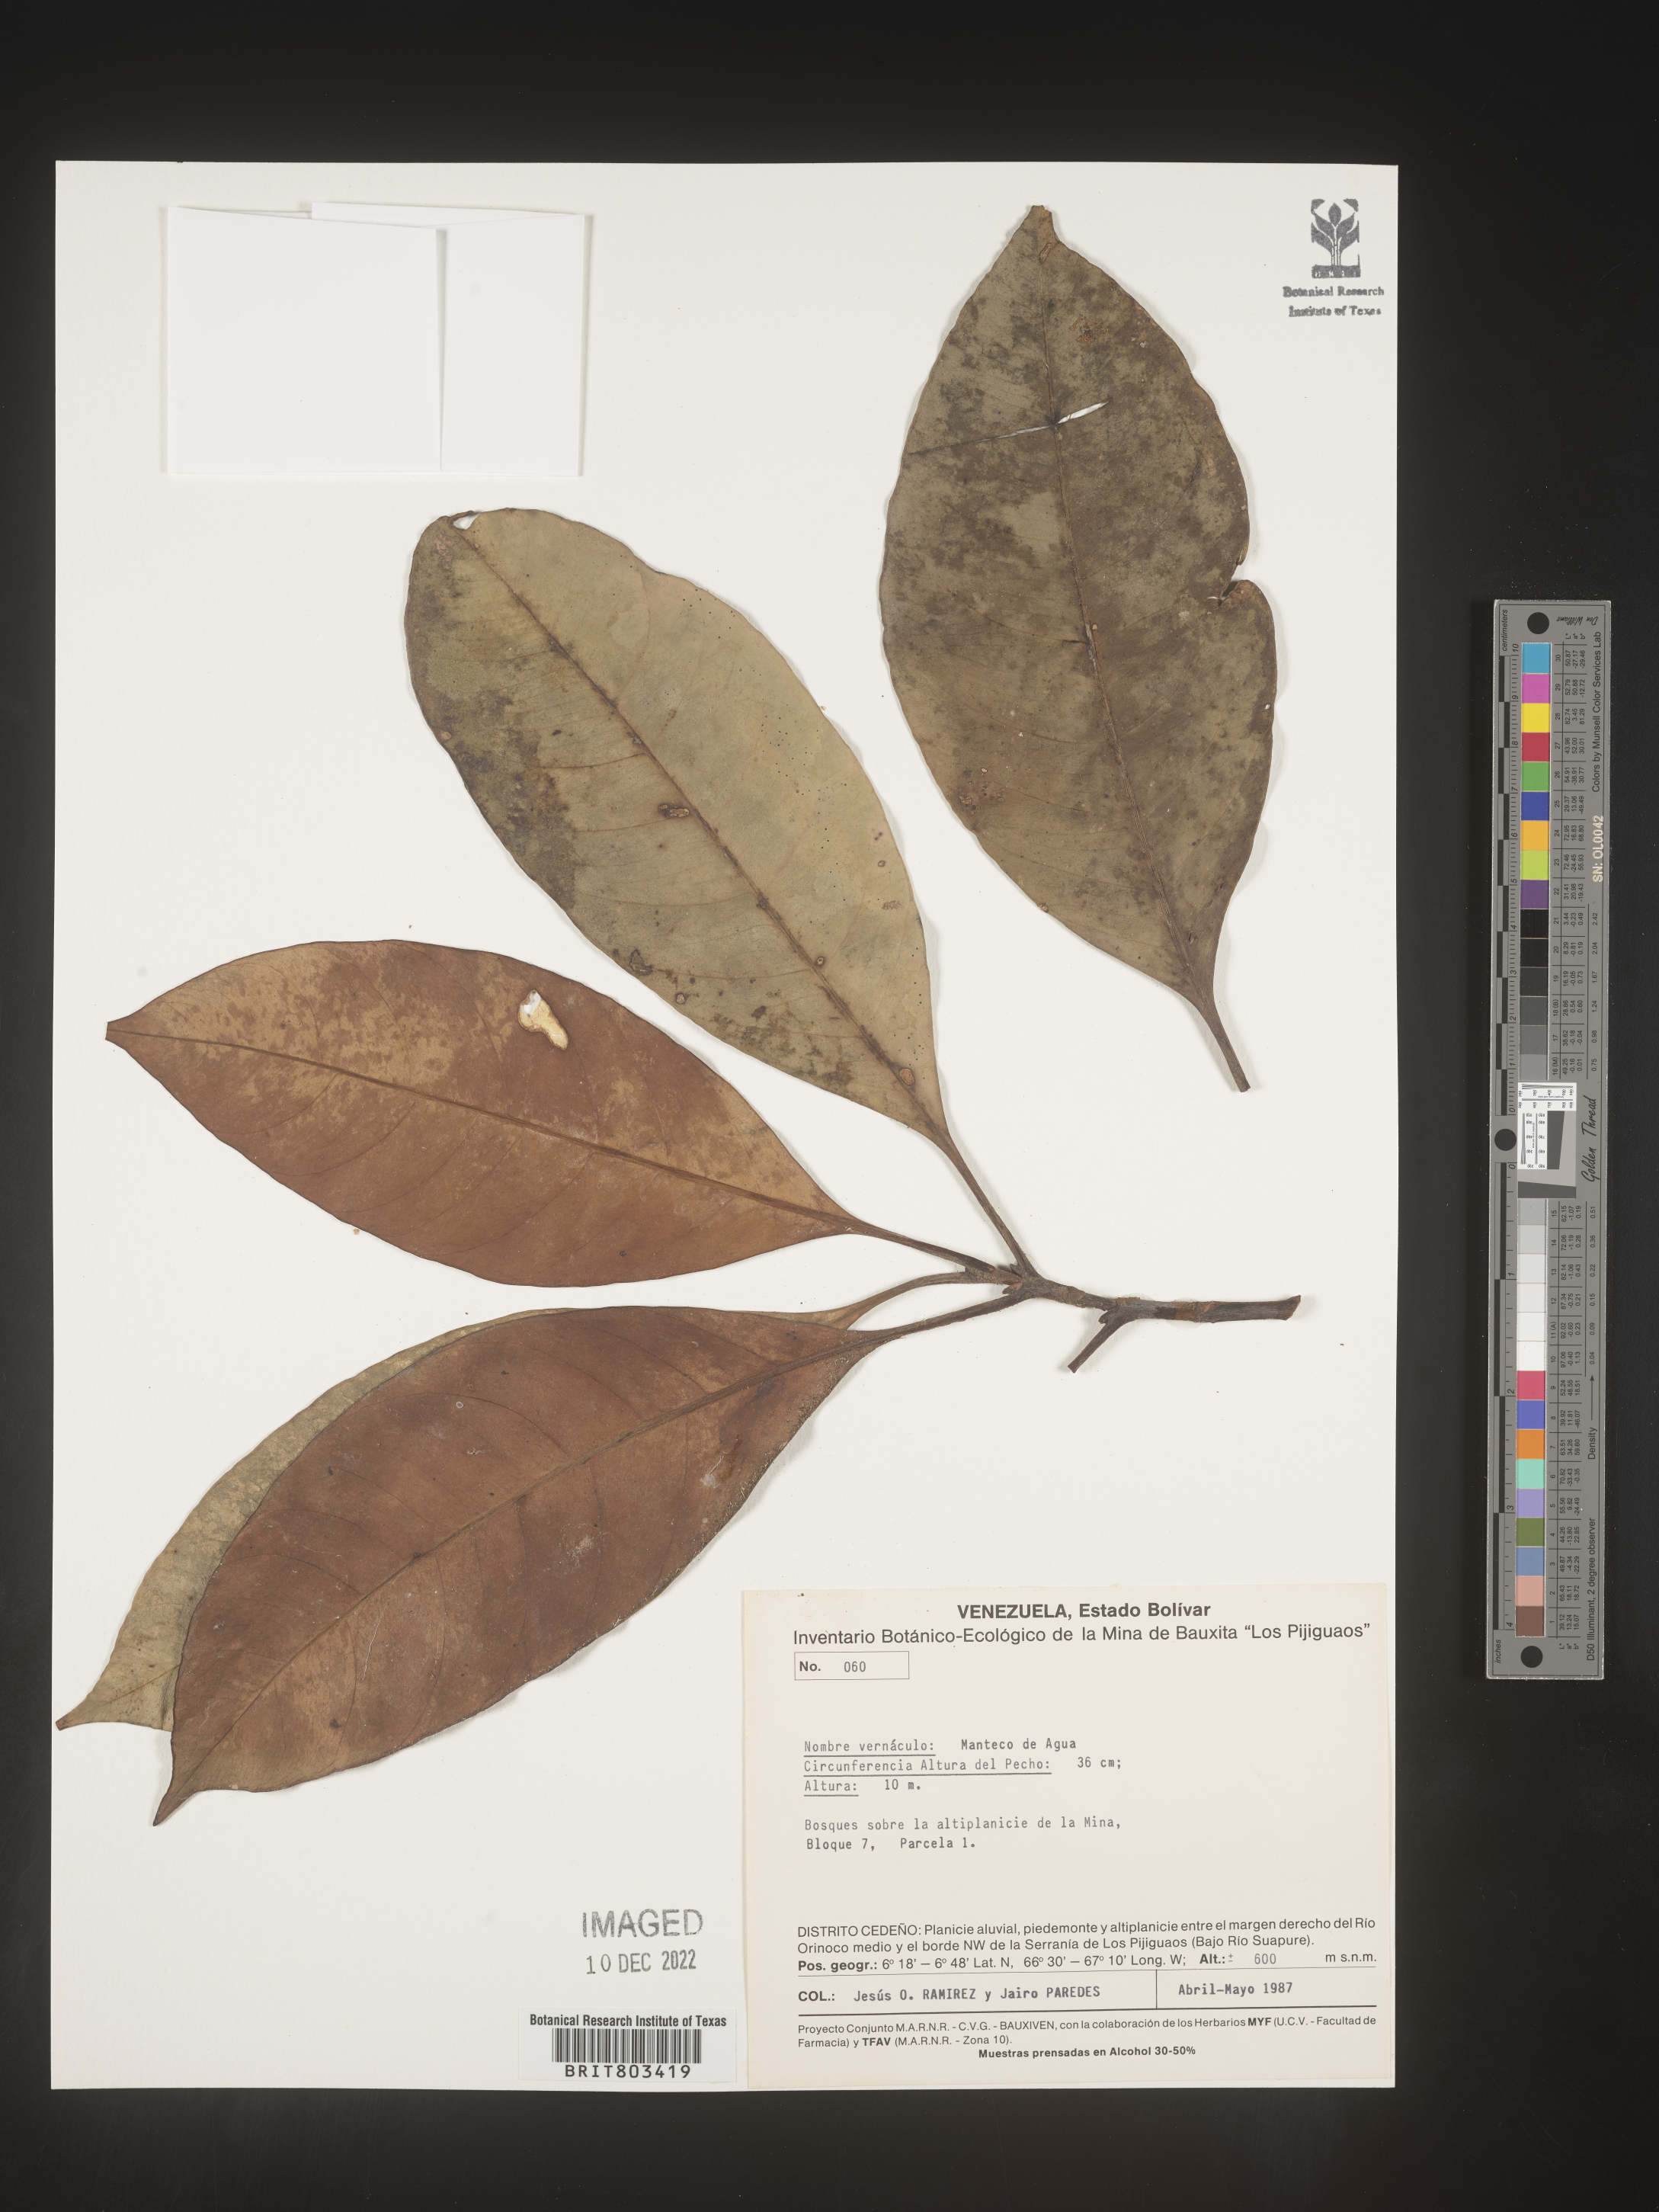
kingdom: Plantae
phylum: Tracheophyta
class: Magnoliopsida
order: Malpighiales
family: Clusiaceae
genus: Tovomita
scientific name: Tovomita
